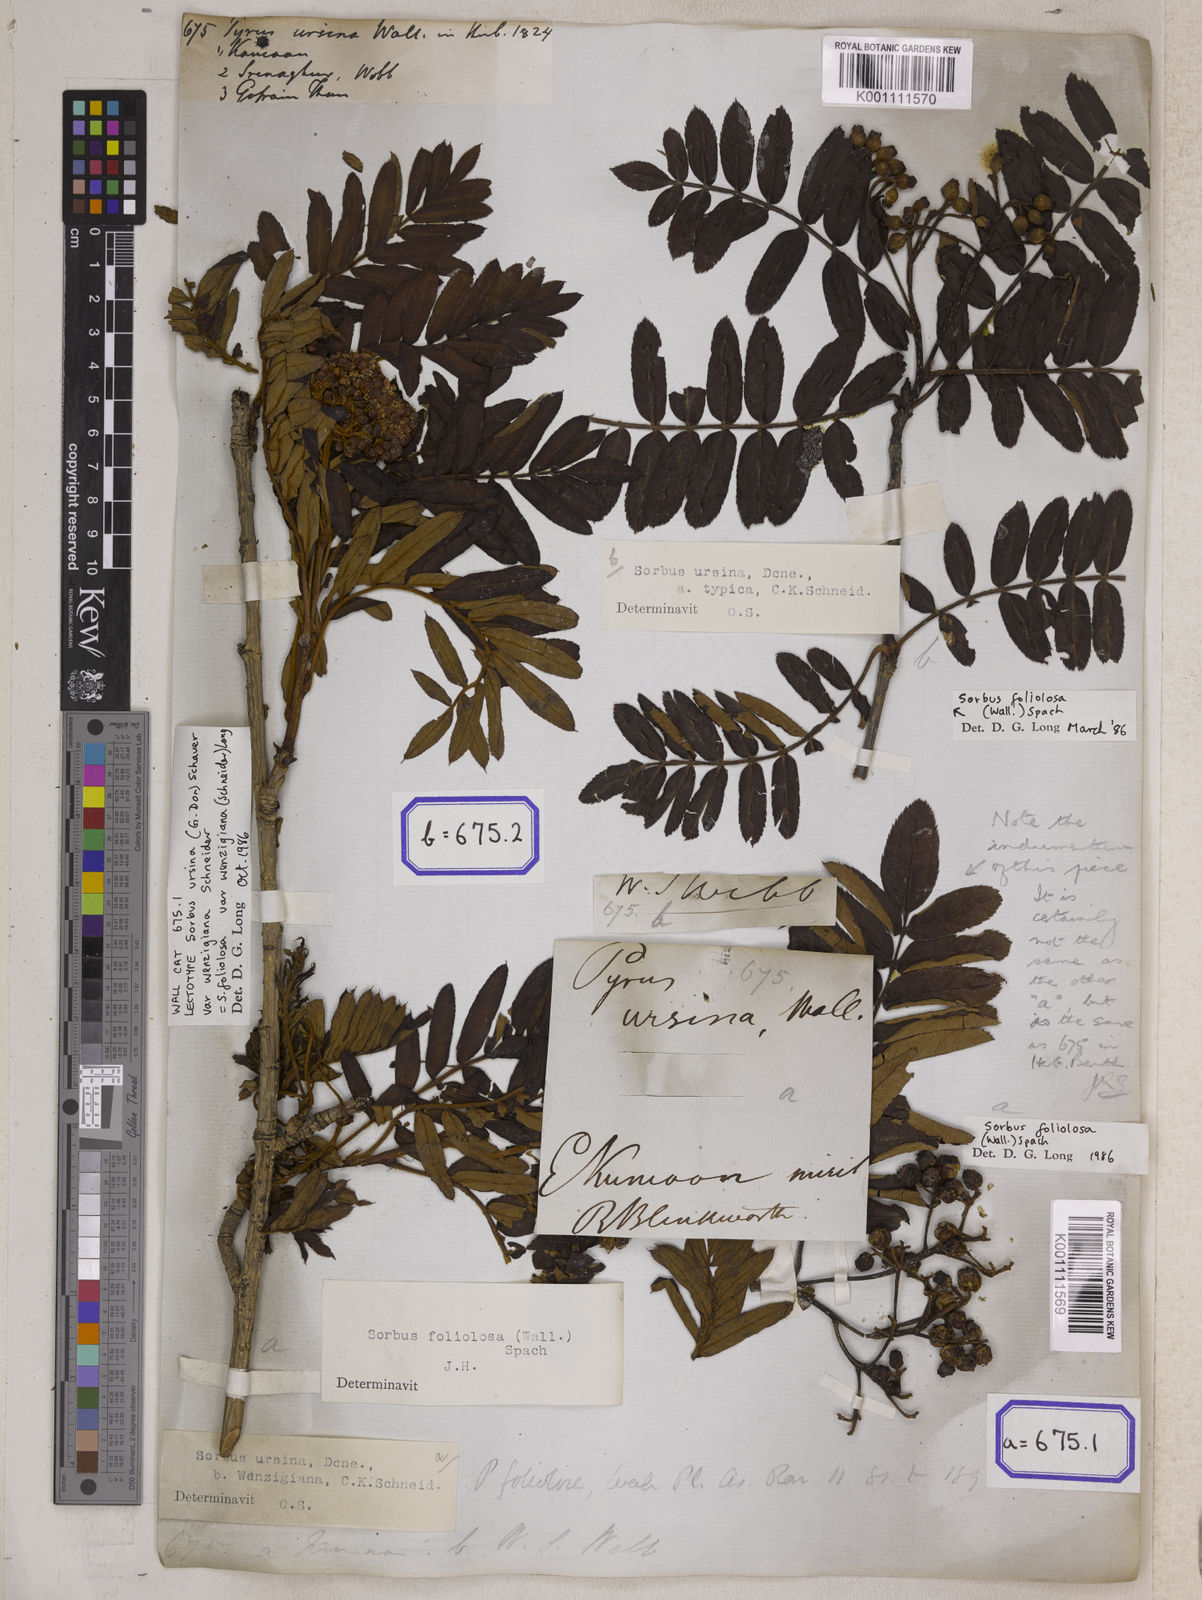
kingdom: Plantae
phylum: Tracheophyta
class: Magnoliopsida
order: Rosales
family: Rosaceae
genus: Pyrus
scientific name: Pyrus
